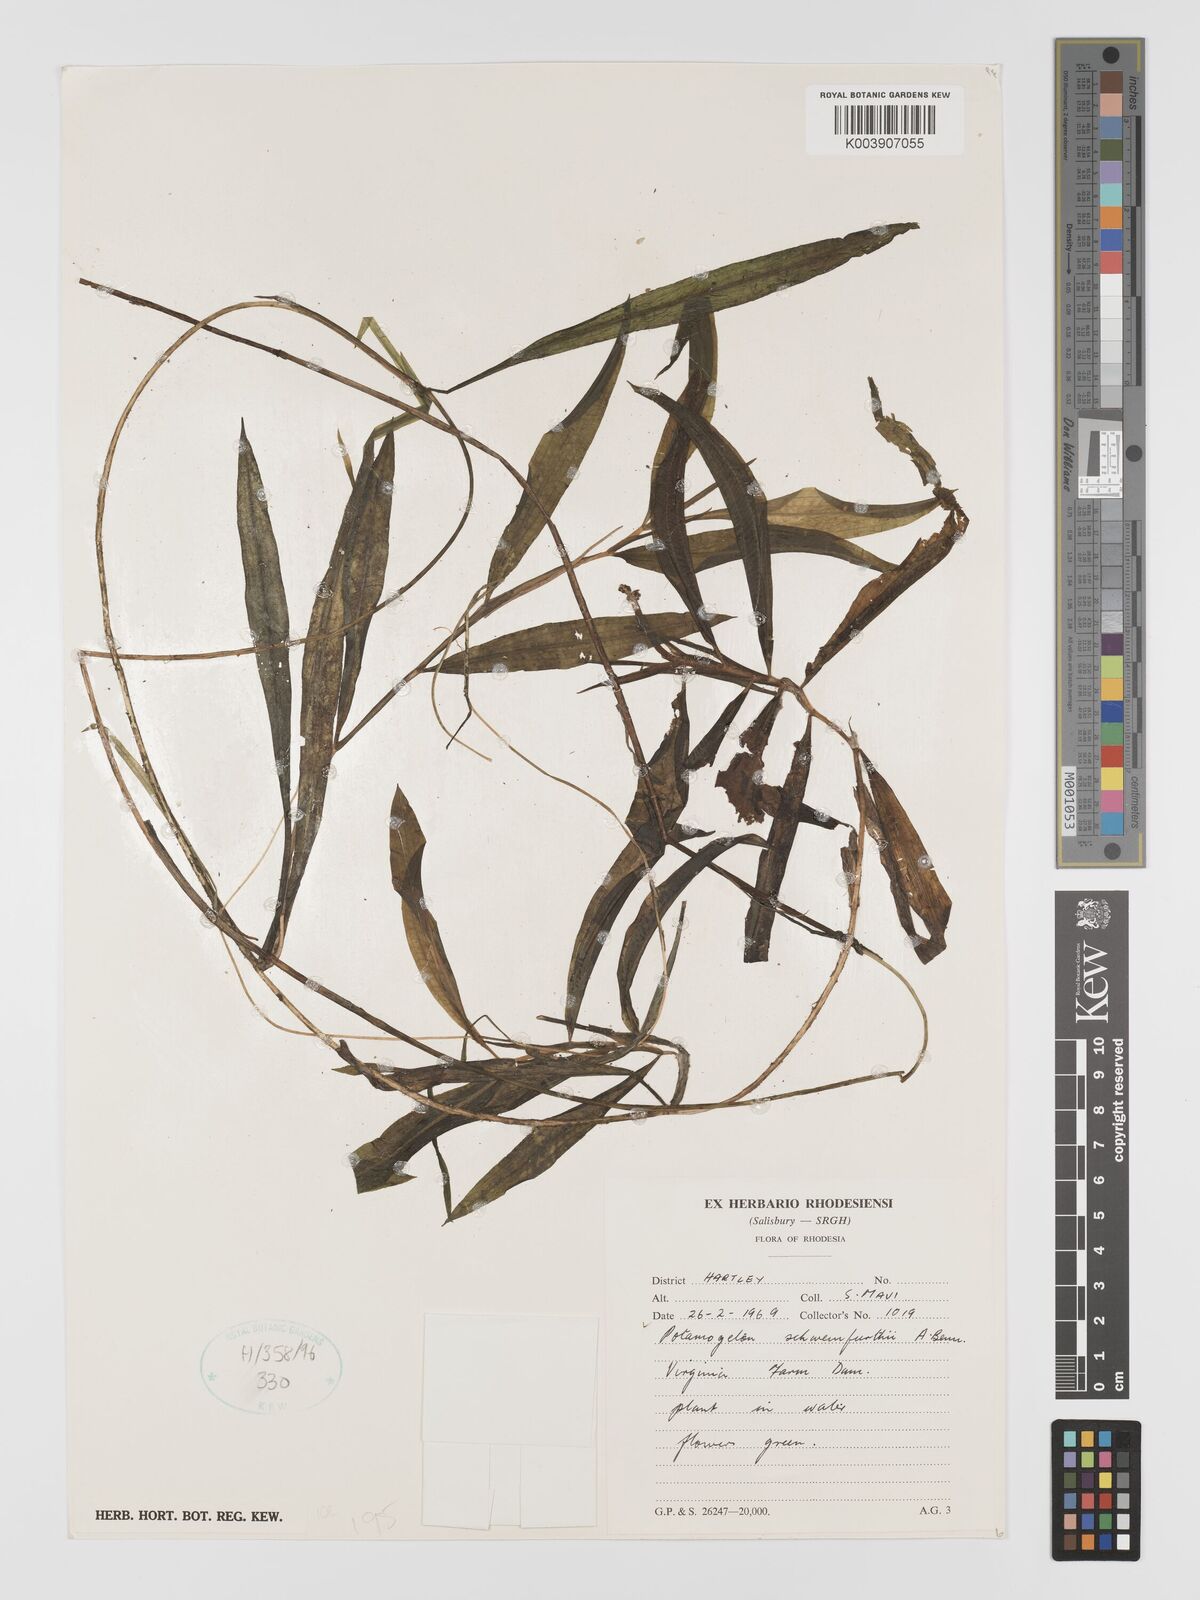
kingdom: Plantae
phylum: Tracheophyta
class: Liliopsida
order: Alismatales
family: Potamogetonaceae
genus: Potamogeton
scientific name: Potamogeton schweinfurthii
